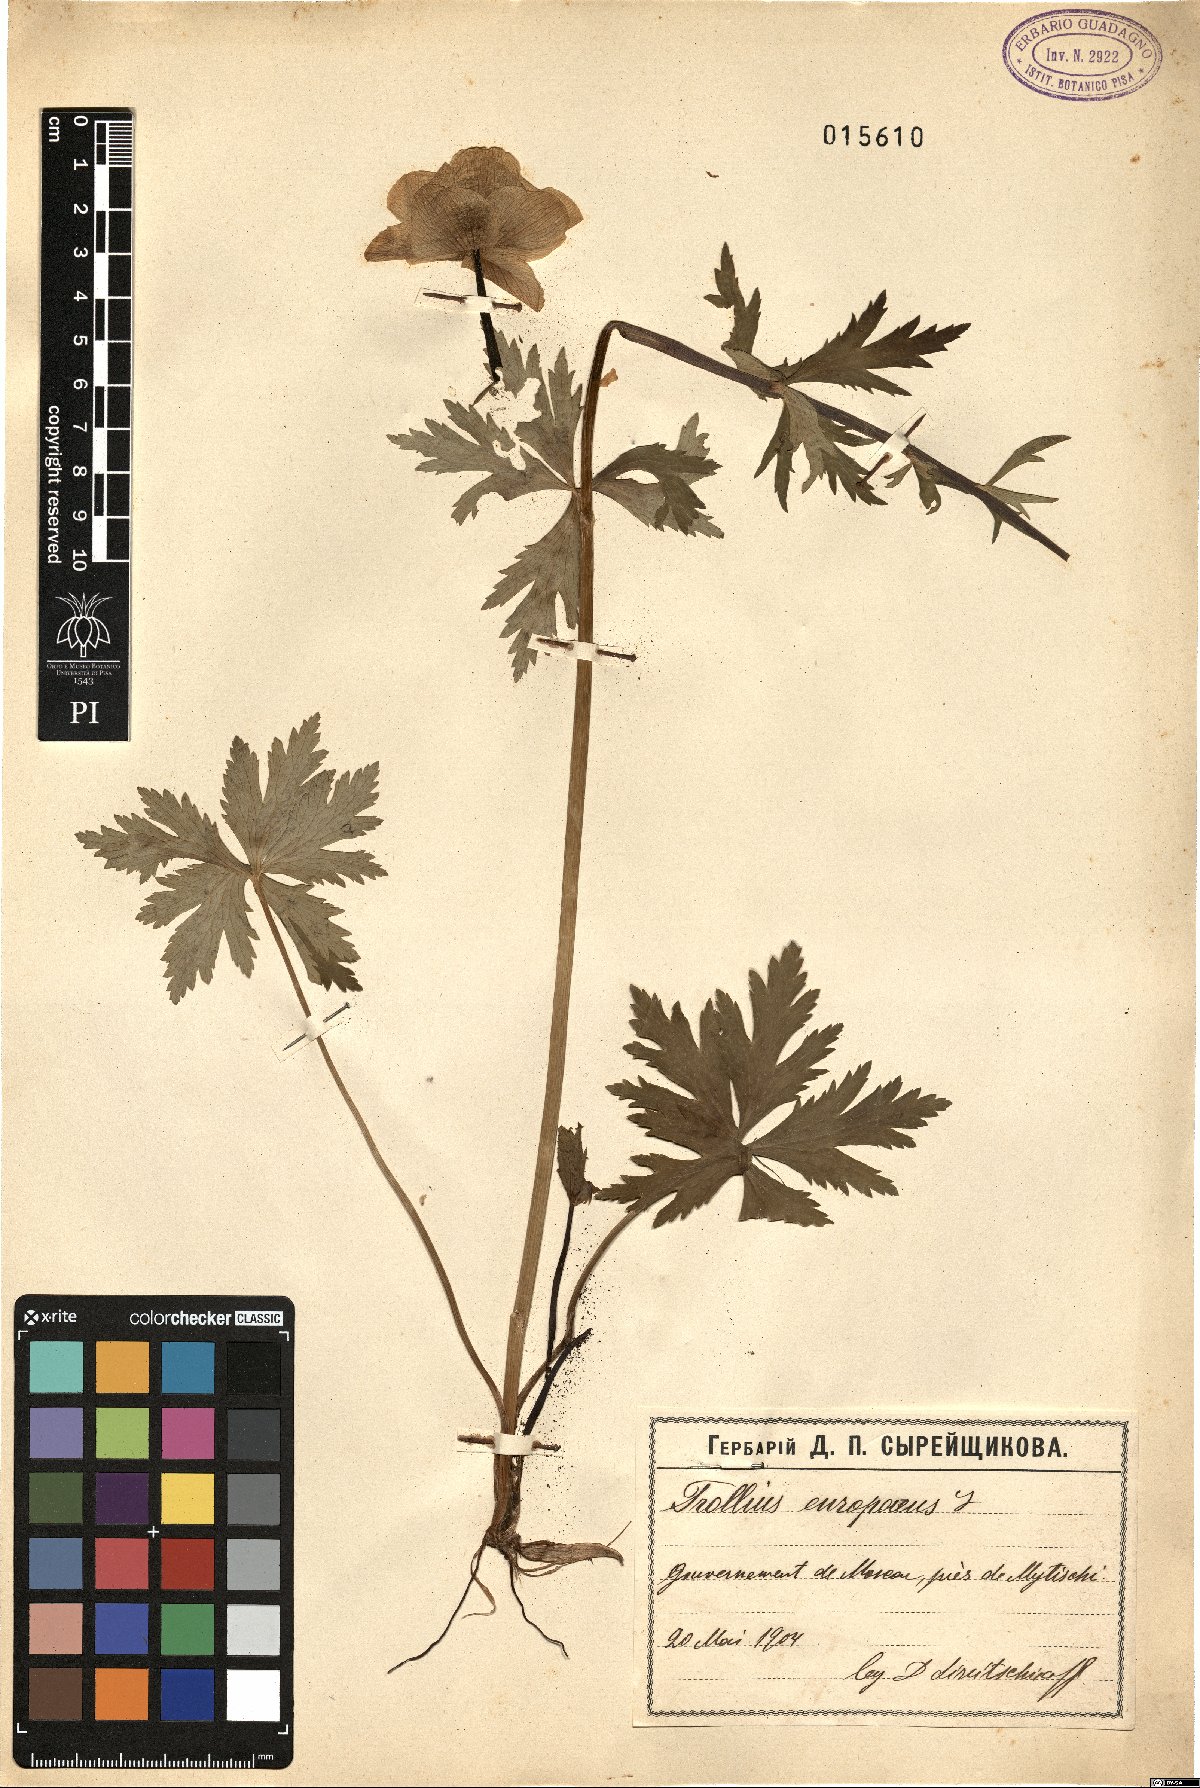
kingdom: Plantae
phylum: Tracheophyta
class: Magnoliopsida
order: Ranunculales
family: Ranunculaceae
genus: Trollius
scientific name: Trollius europaeus
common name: European globeflower
